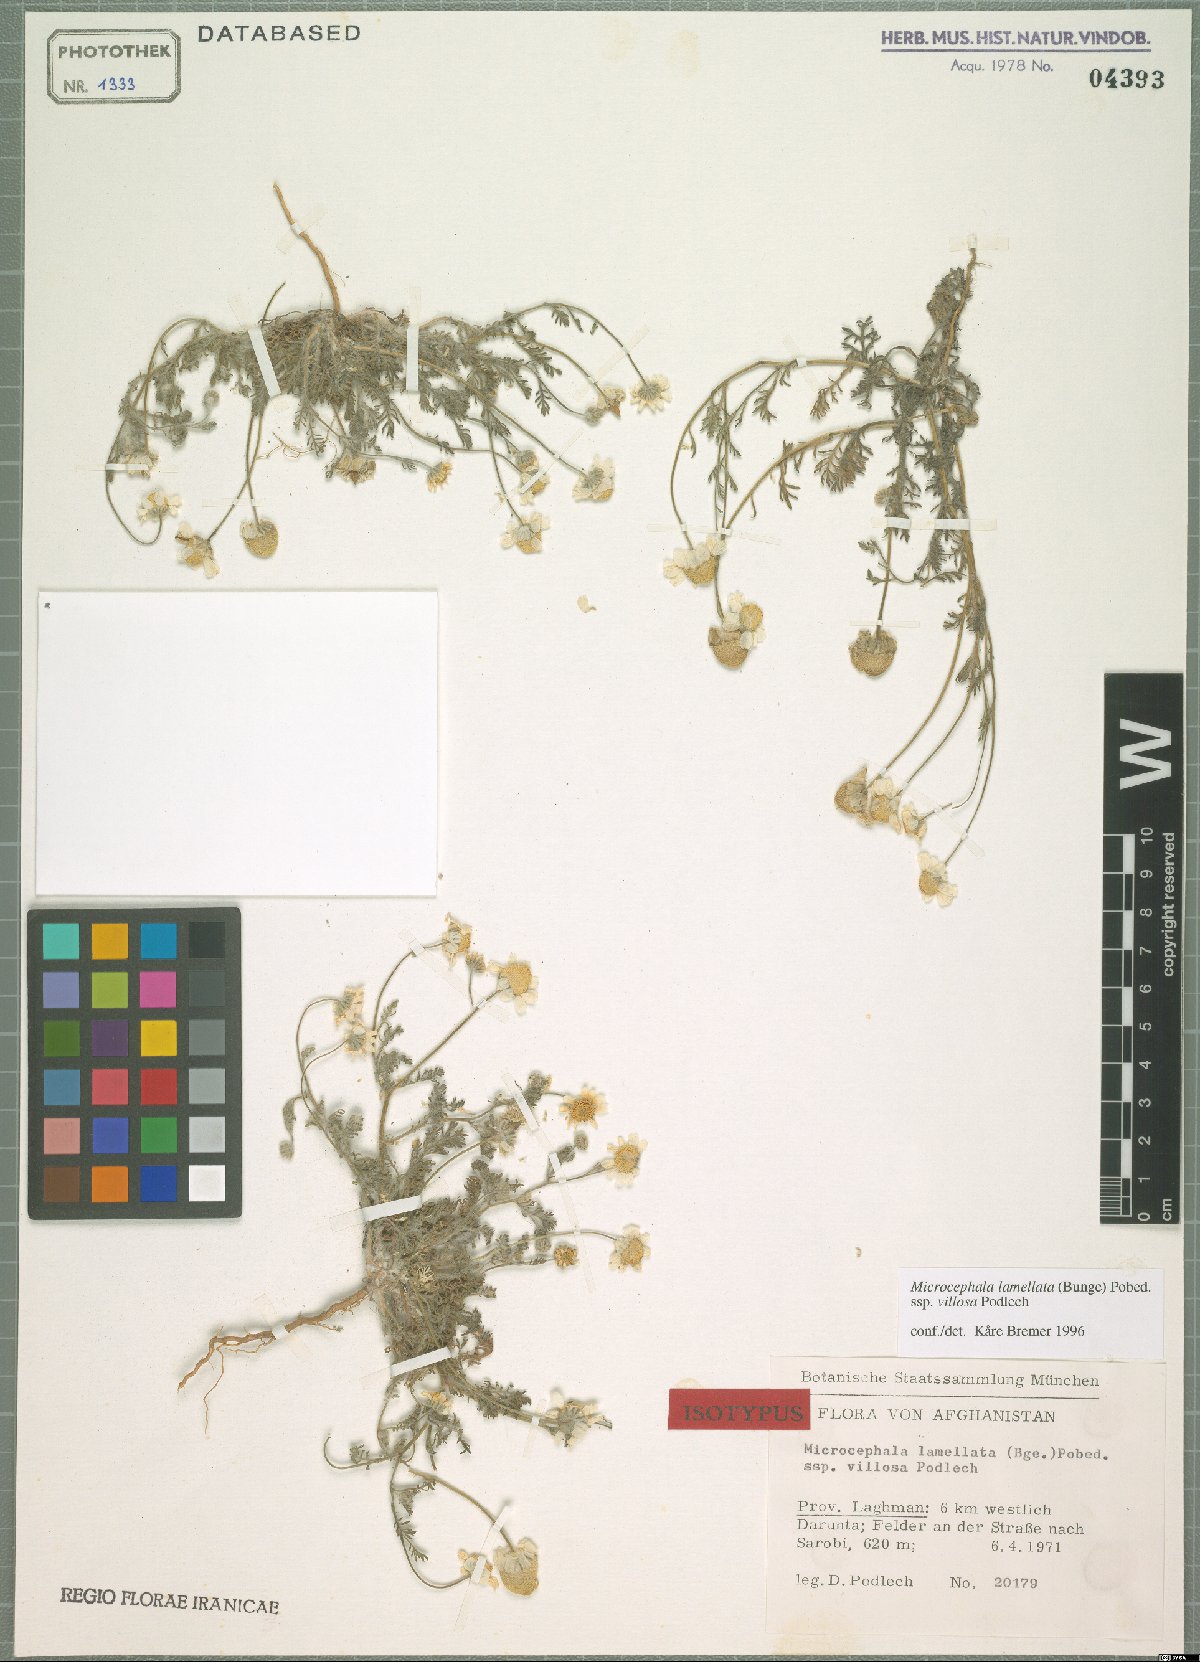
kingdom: Plantae
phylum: Tracheophyta
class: Magnoliopsida
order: Asterales
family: Asteraceae
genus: Microcephala
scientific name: Microcephala lamellata
